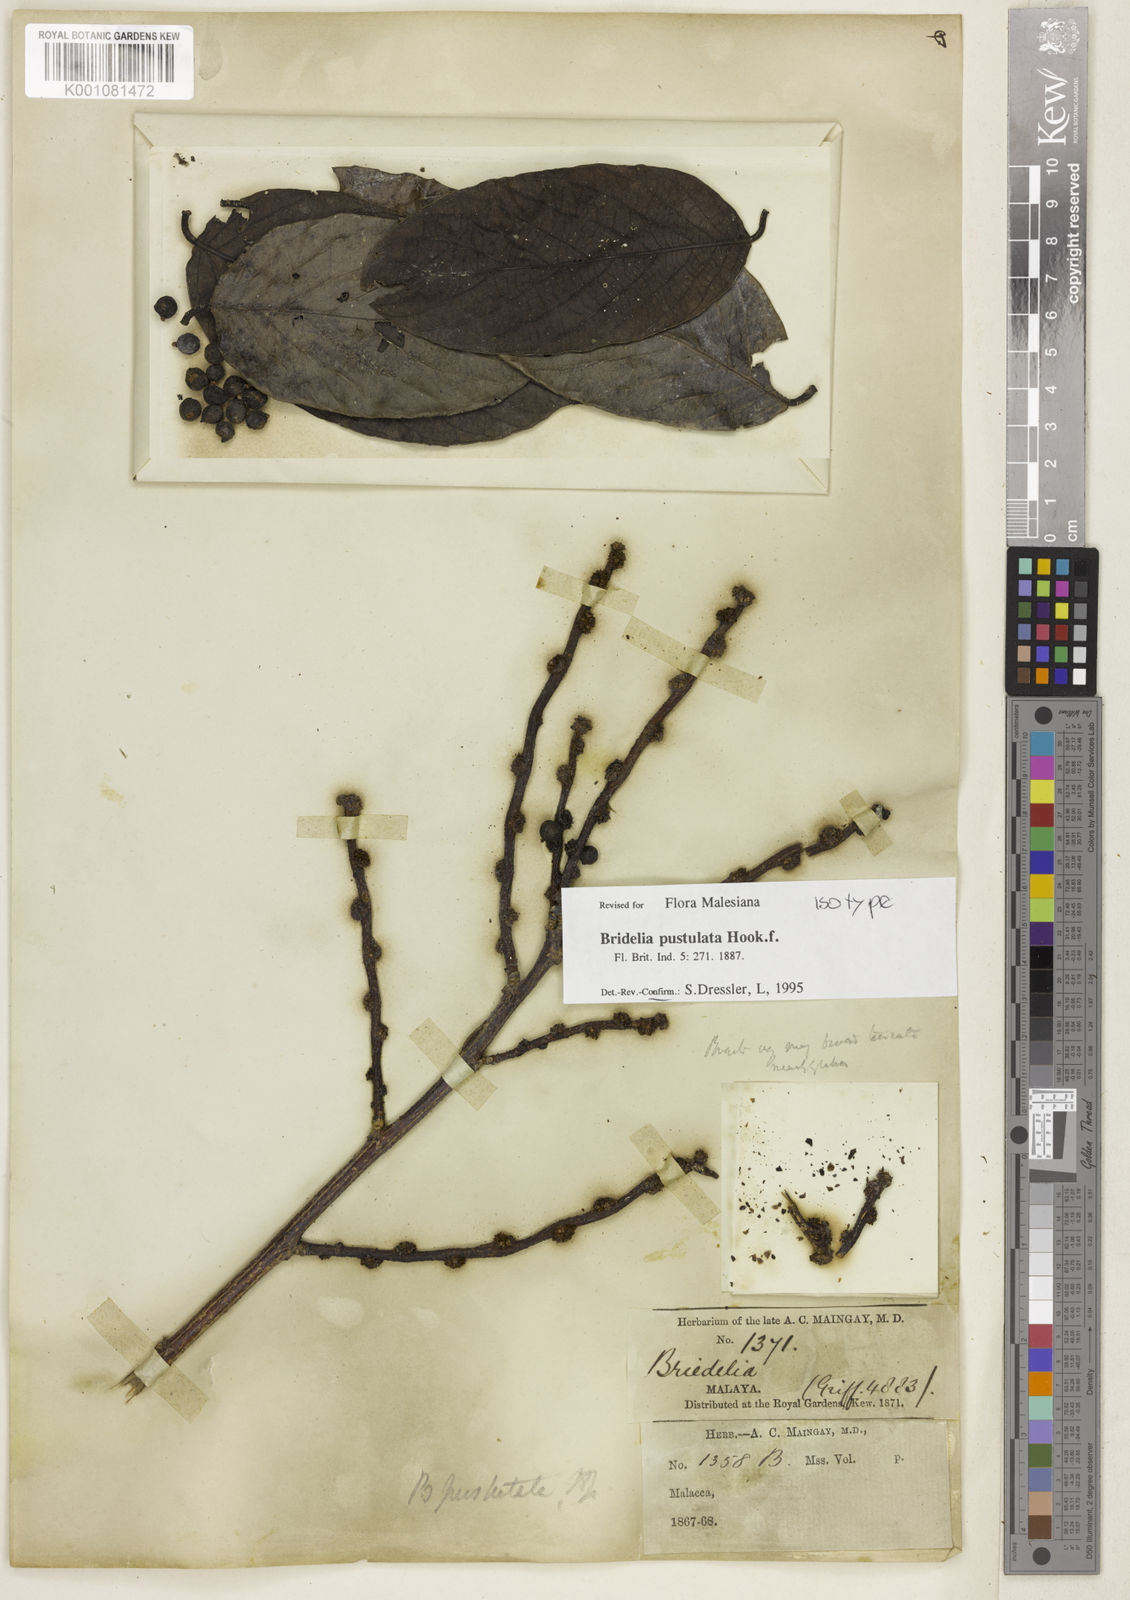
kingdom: Plantae
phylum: Tracheophyta
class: Magnoliopsida
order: Malpighiales
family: Phyllanthaceae
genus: Bridelia
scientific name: Bridelia pustulata
